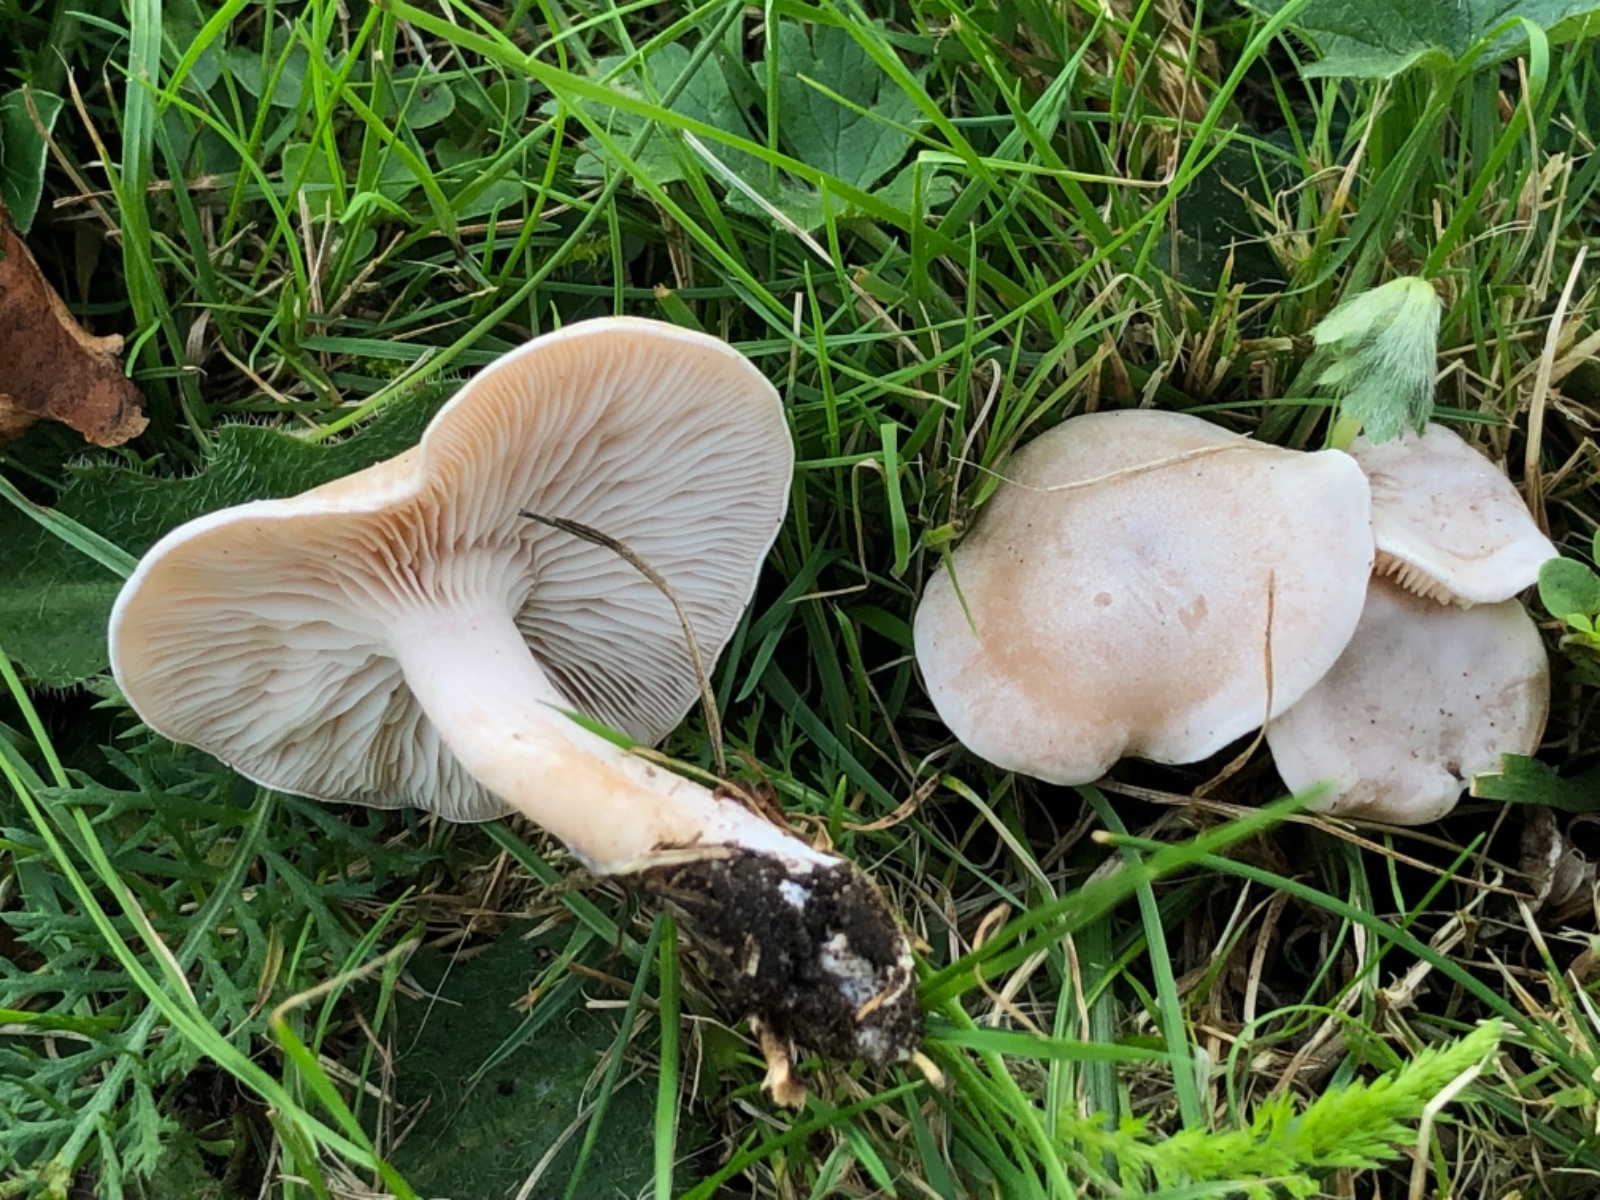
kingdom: Fungi
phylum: Basidiomycota
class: Agaricomycetes
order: Agaricales
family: Tricholomataceae
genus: Clitocybe
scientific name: Clitocybe rivulosa
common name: eng-tragthat
